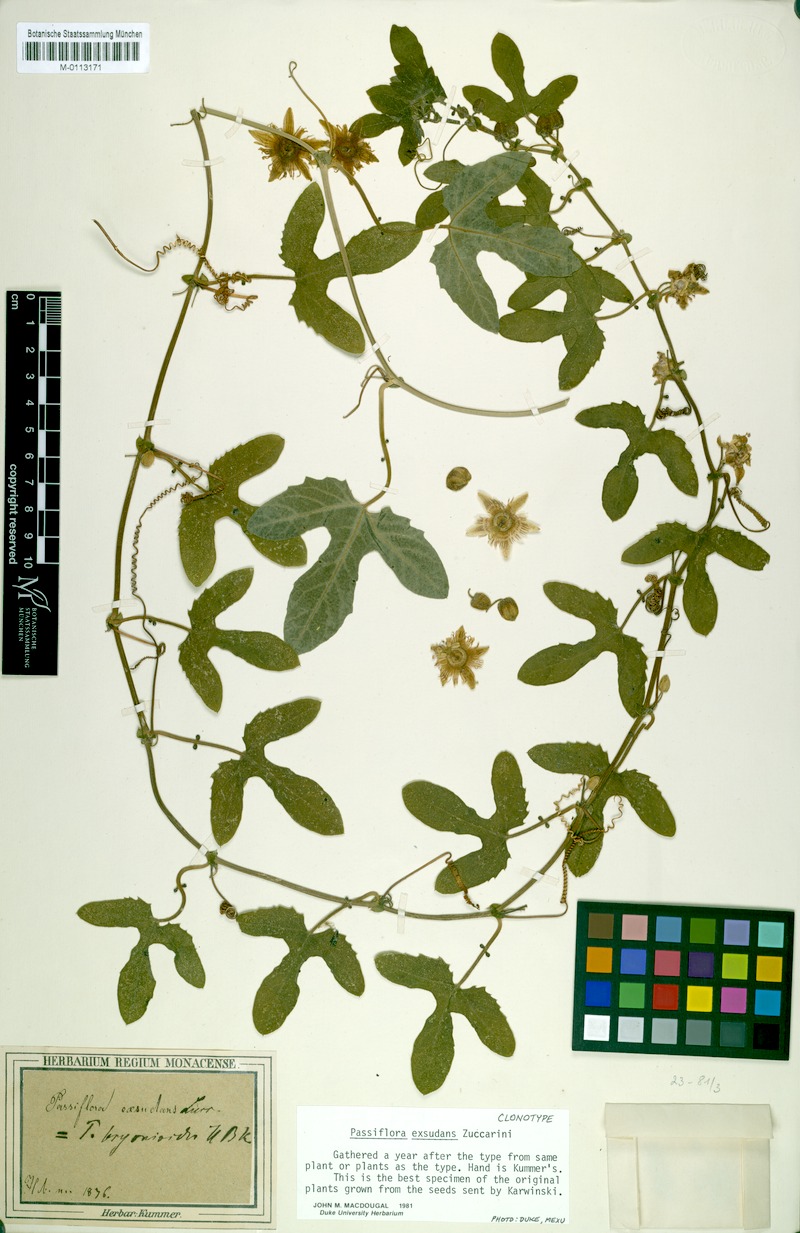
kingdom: Plantae
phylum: Tracheophyta
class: Magnoliopsida
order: Malpighiales
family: Passifloraceae
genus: Passiflora
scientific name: Passiflora exsudans
